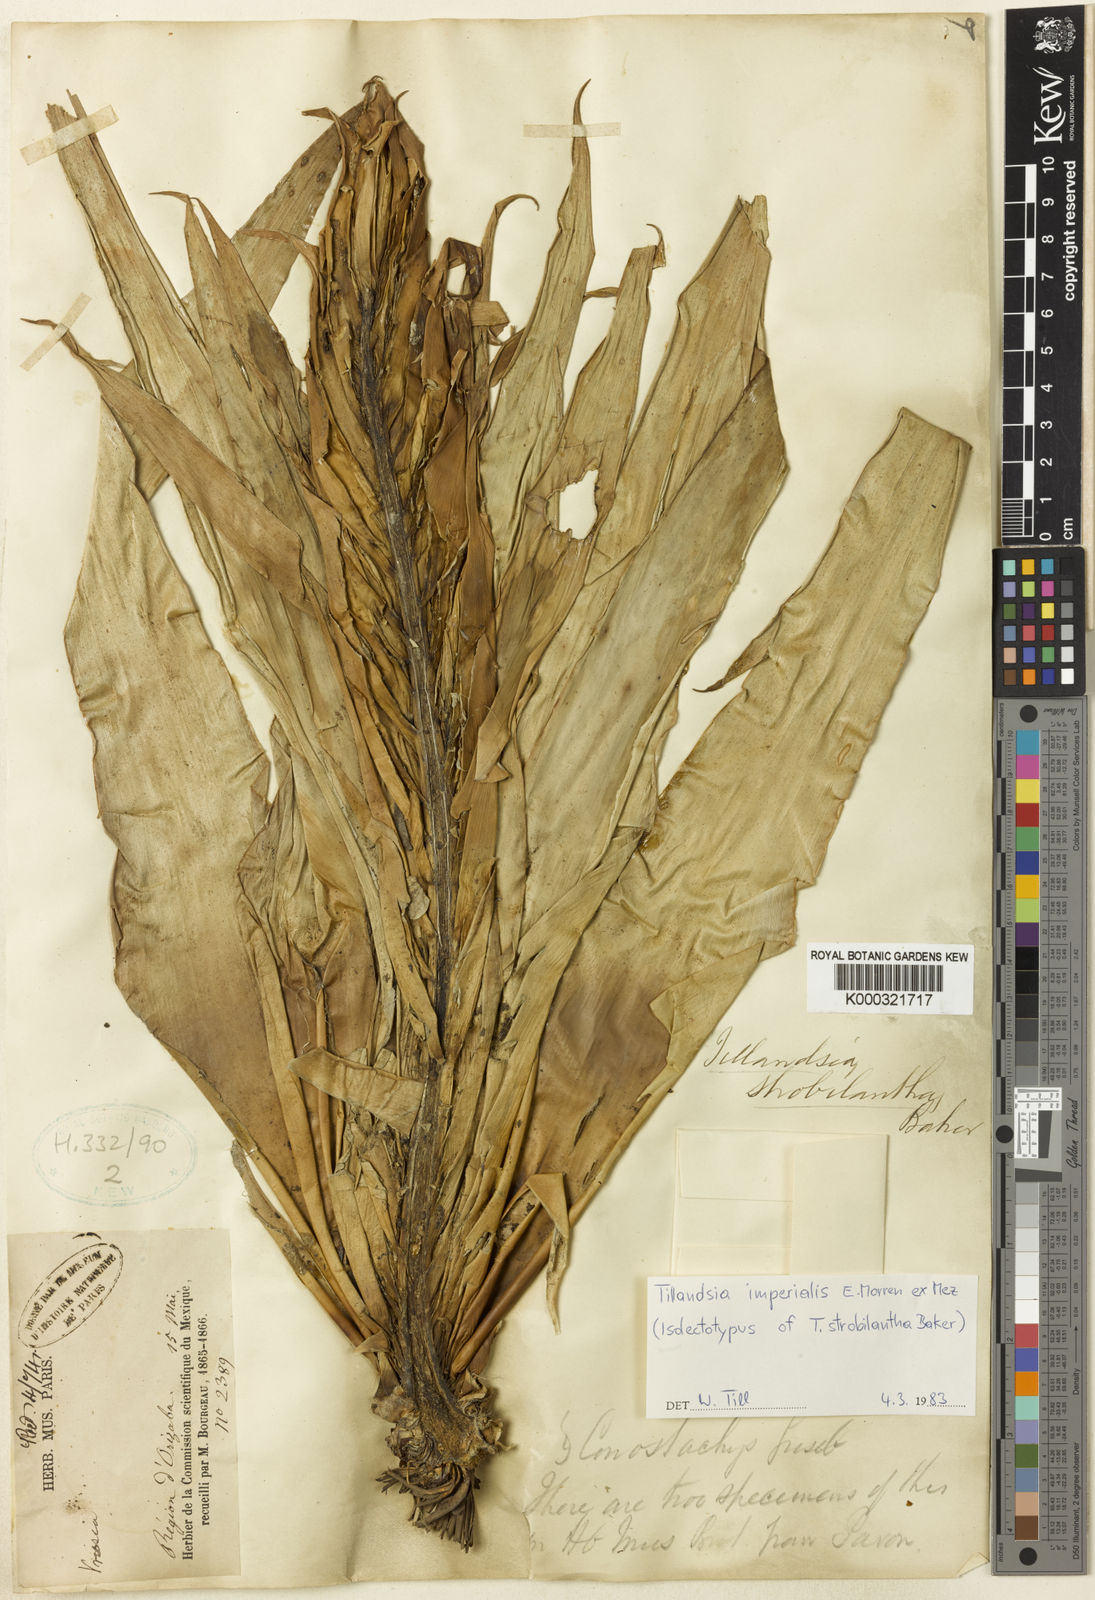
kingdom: Plantae
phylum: Tracheophyta
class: Liliopsida
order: Poales
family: Bromeliaceae
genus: Tillandsia
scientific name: Tillandsia
